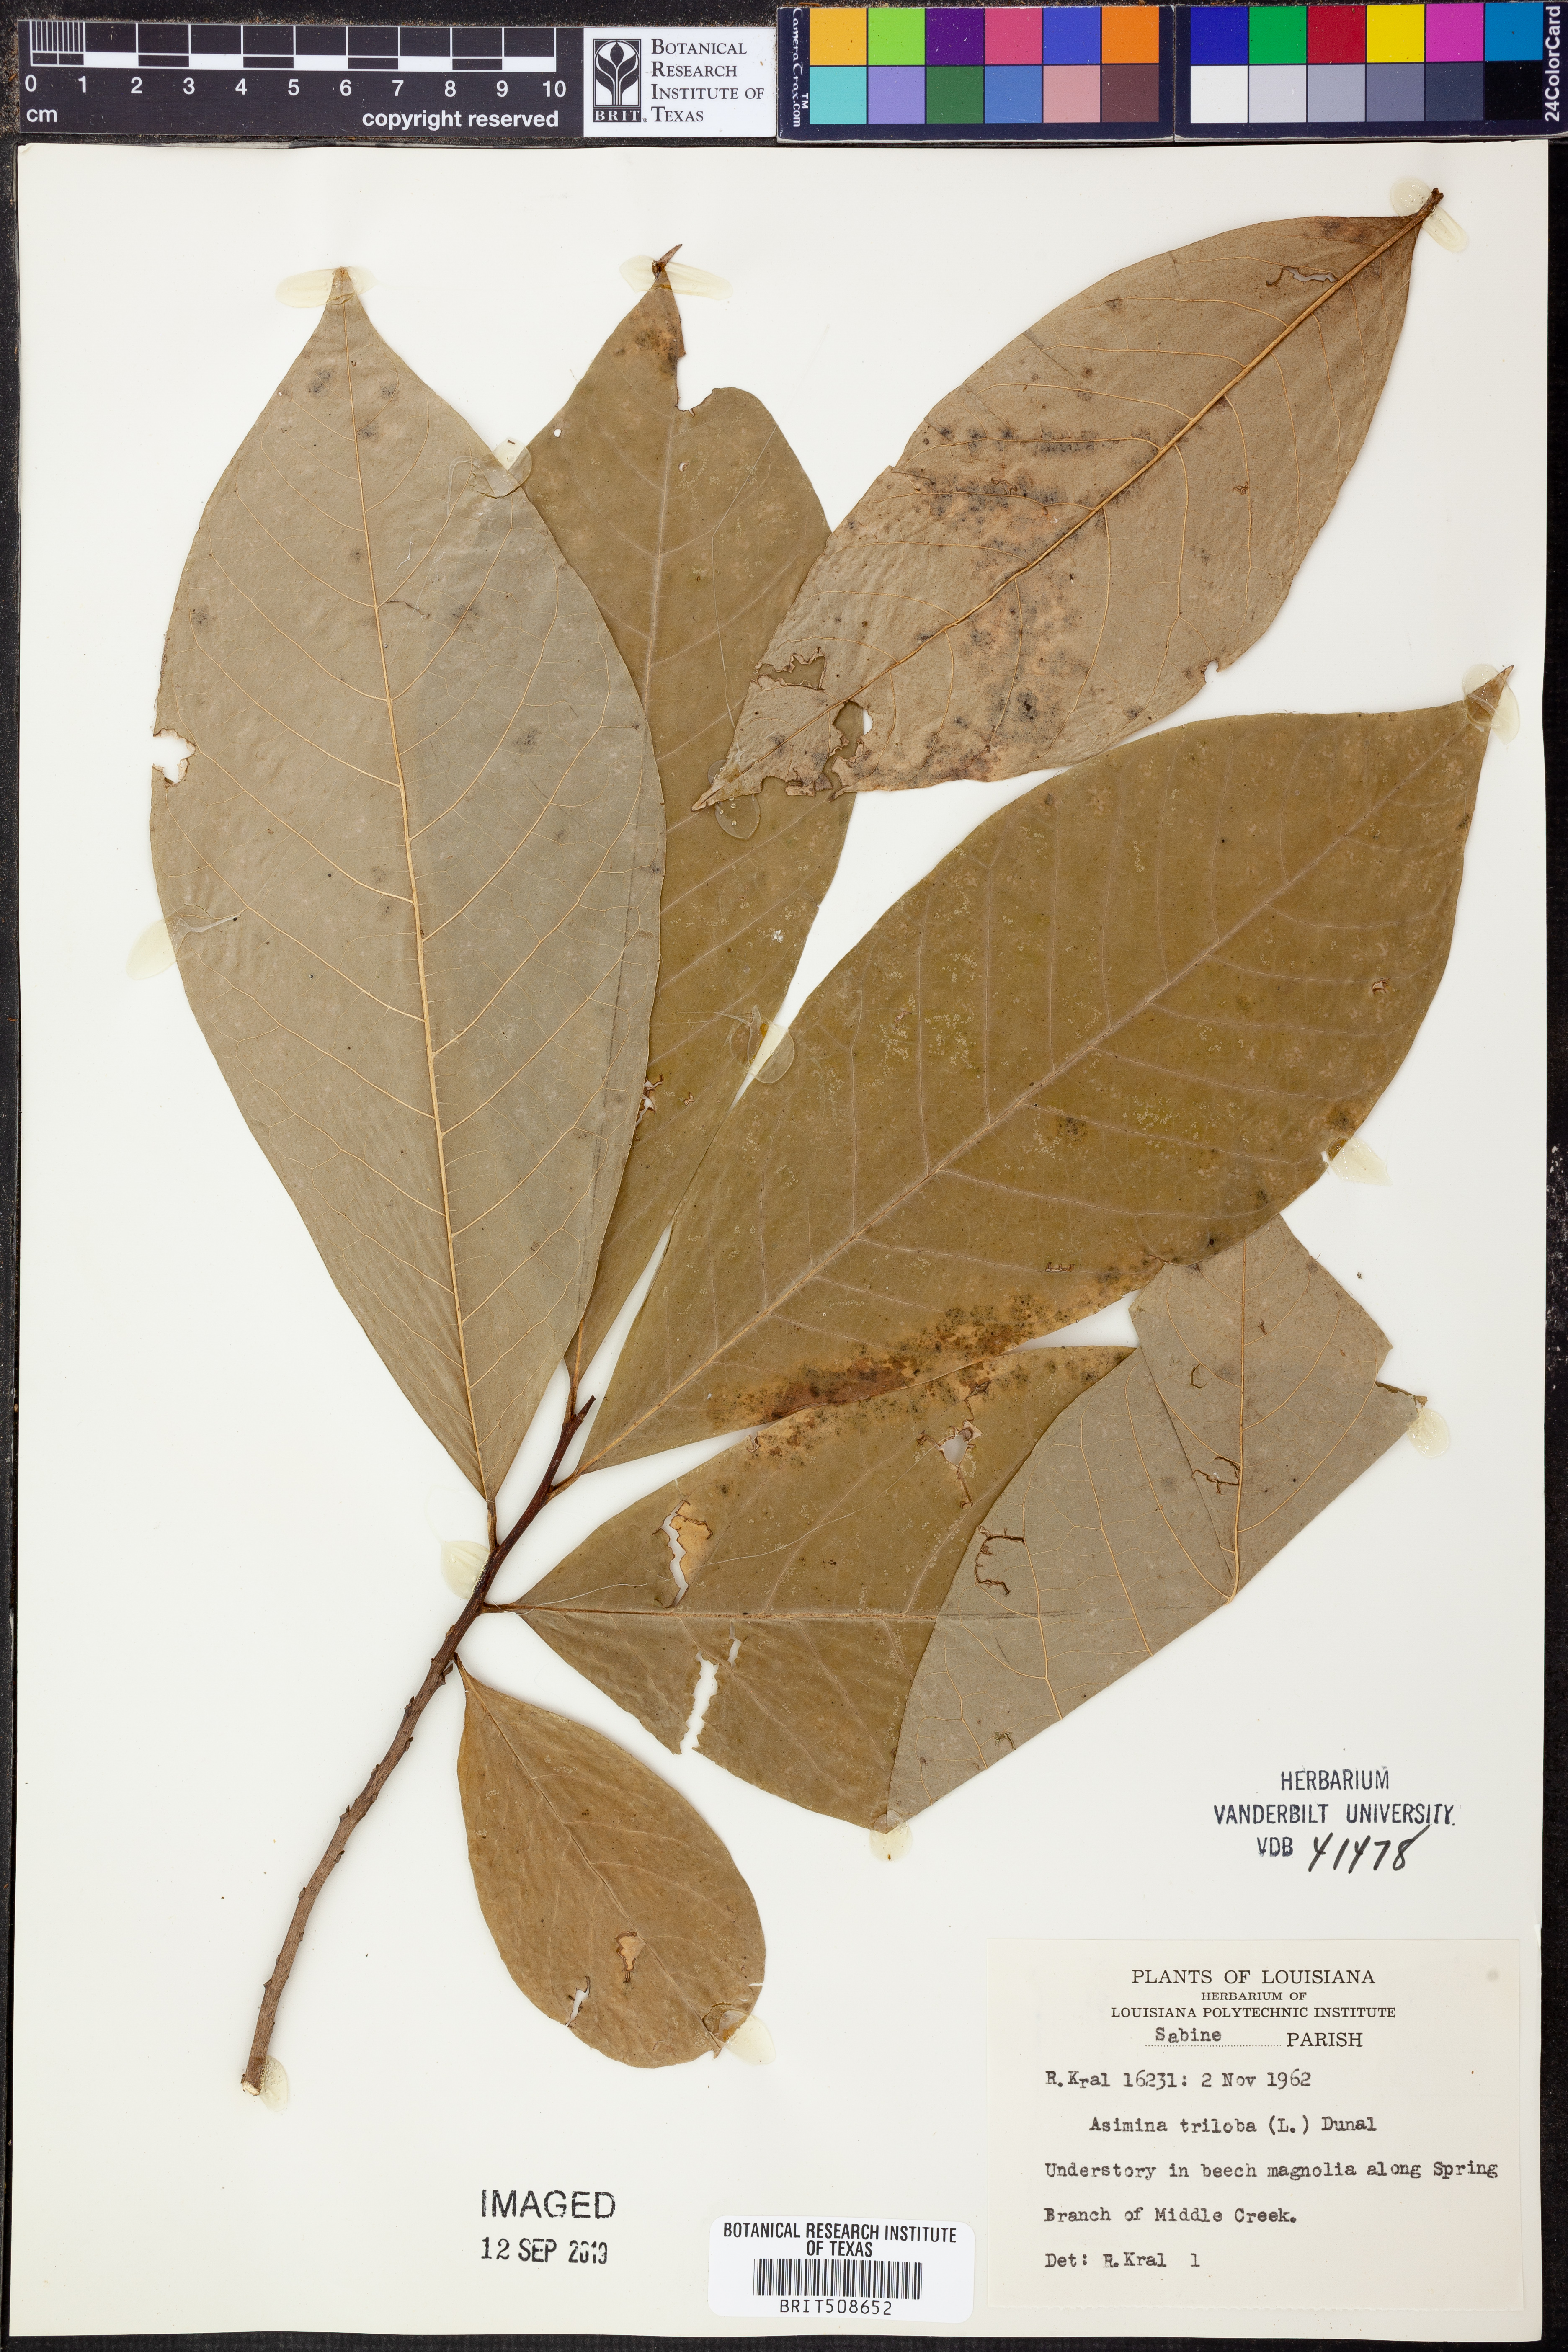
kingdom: Plantae
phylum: Tracheophyta
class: Magnoliopsida
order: Magnoliales
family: Annonaceae
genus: Asimina
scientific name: Asimina triloba
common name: Dog-banana
